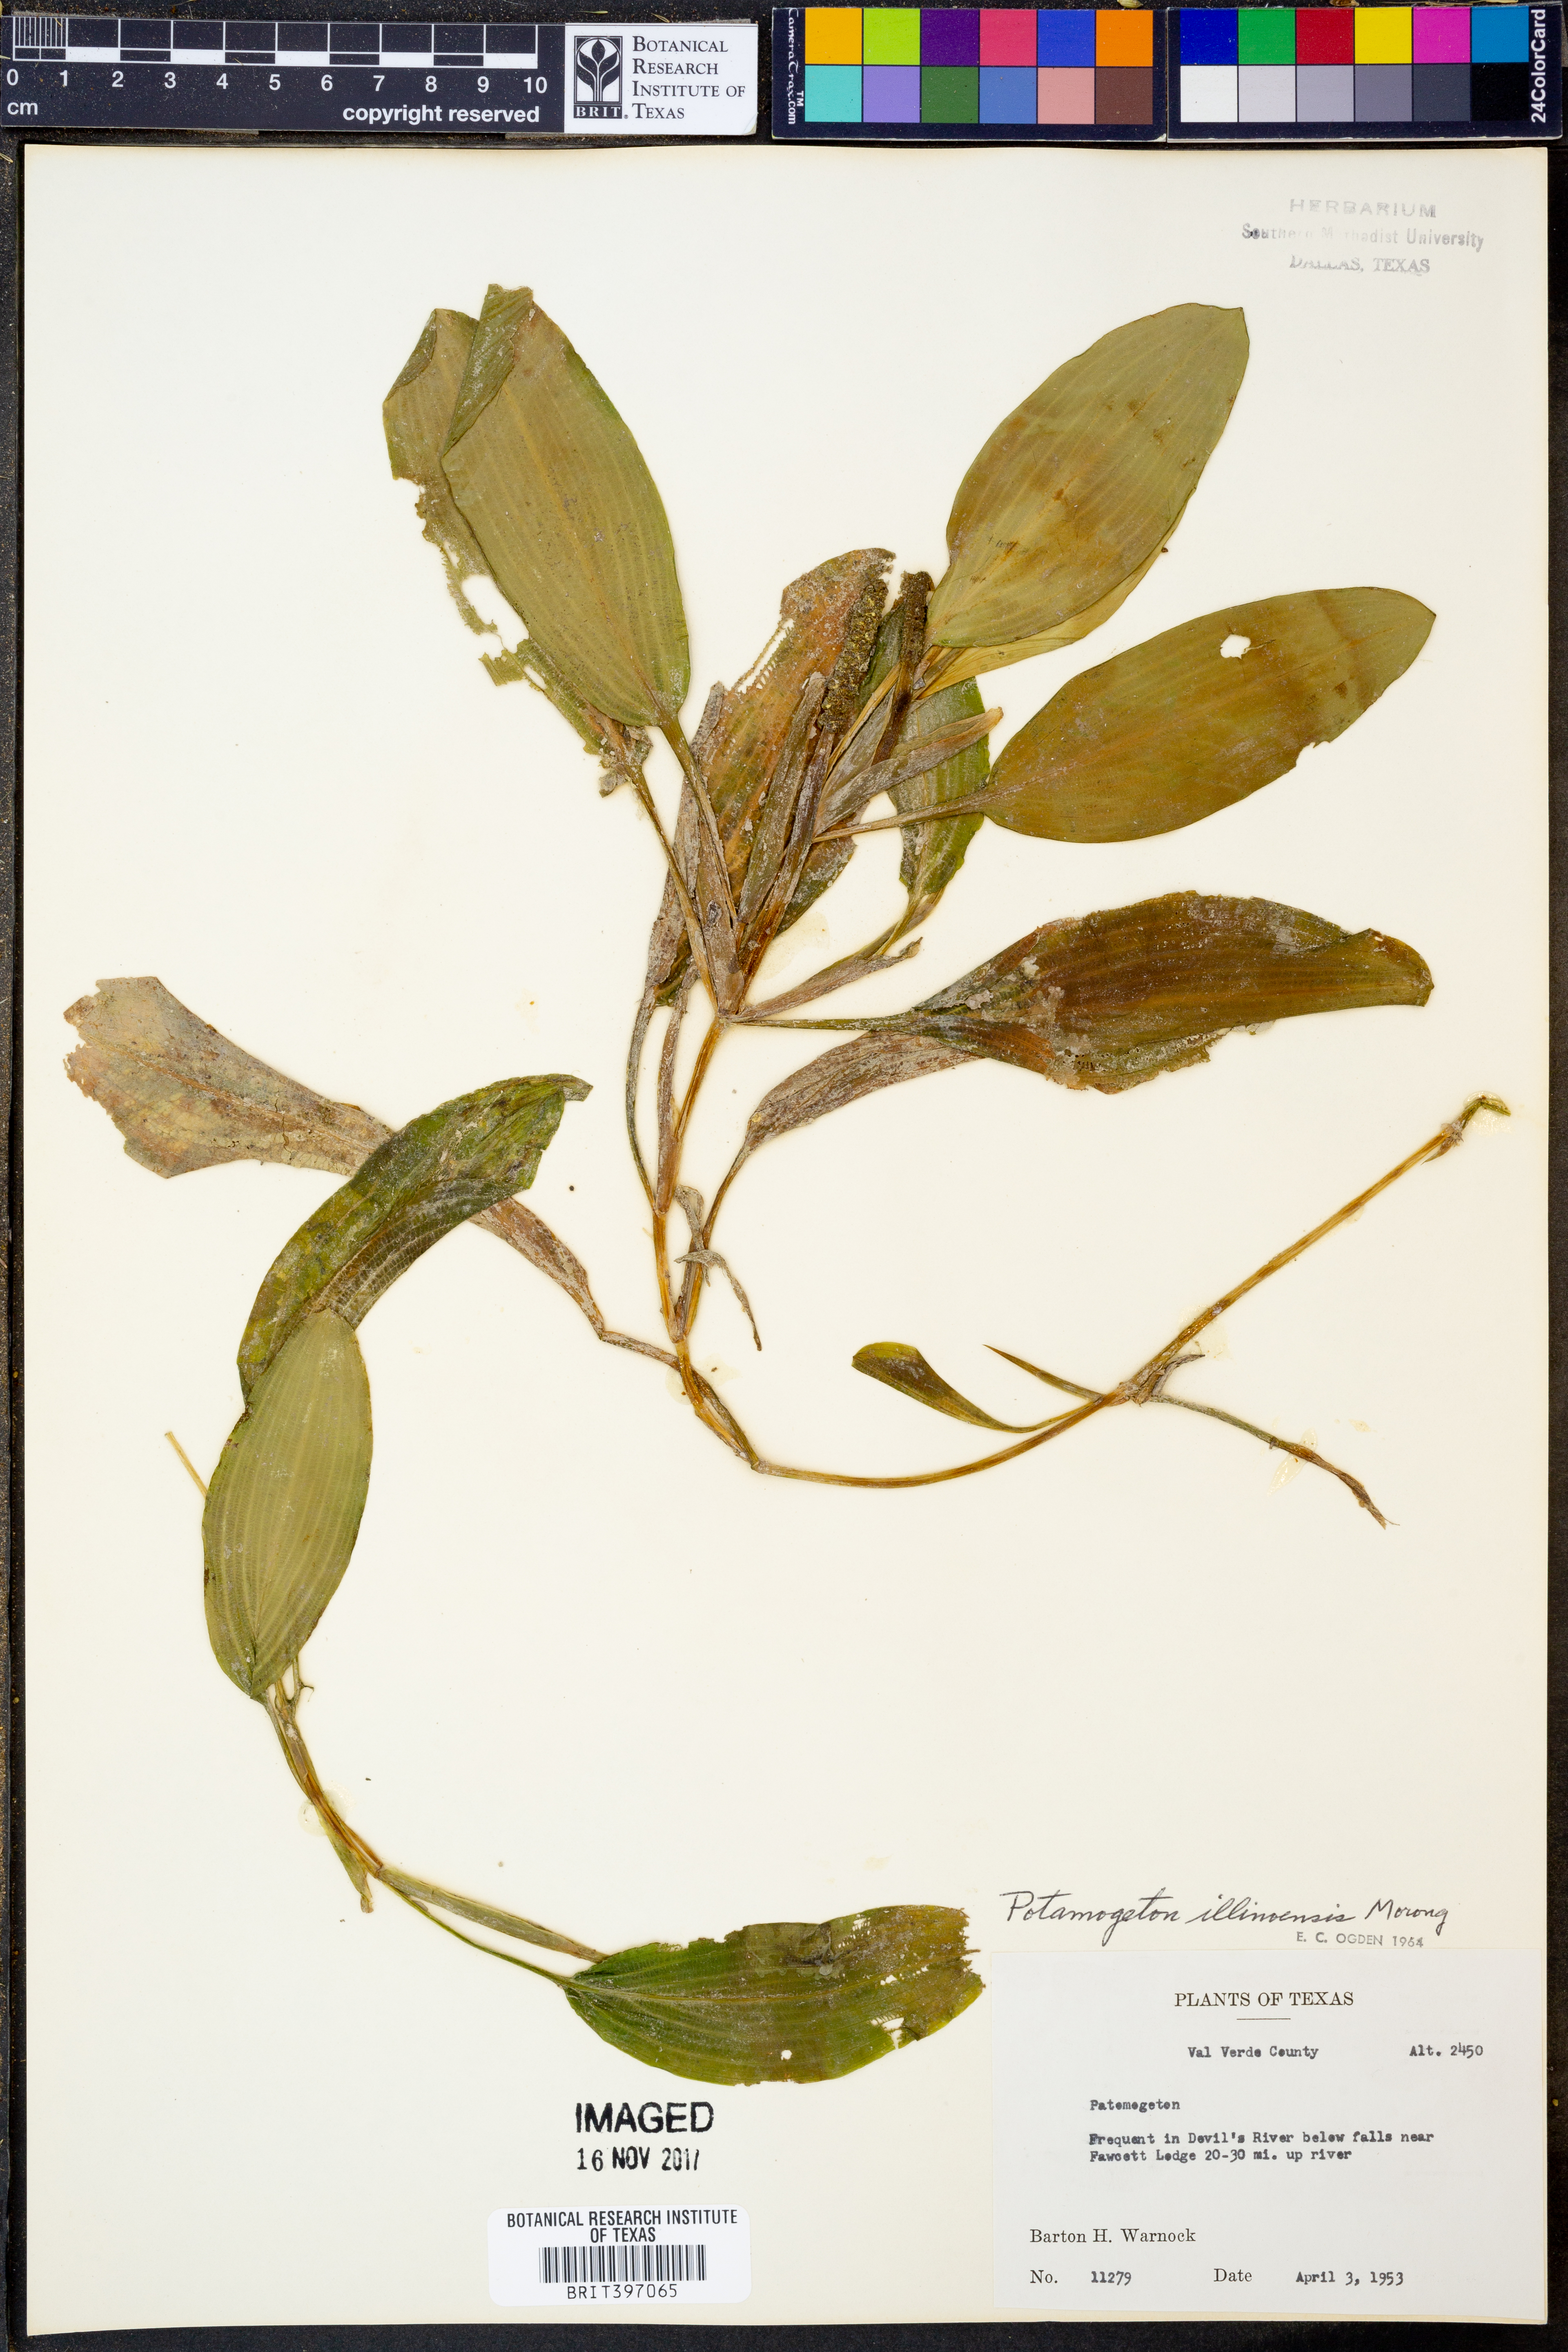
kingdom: Plantae
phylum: Tracheophyta
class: Liliopsida
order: Alismatales
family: Potamogetonaceae
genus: Potamogeton
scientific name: Potamogeton illinoensis
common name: Illinois pondweed
